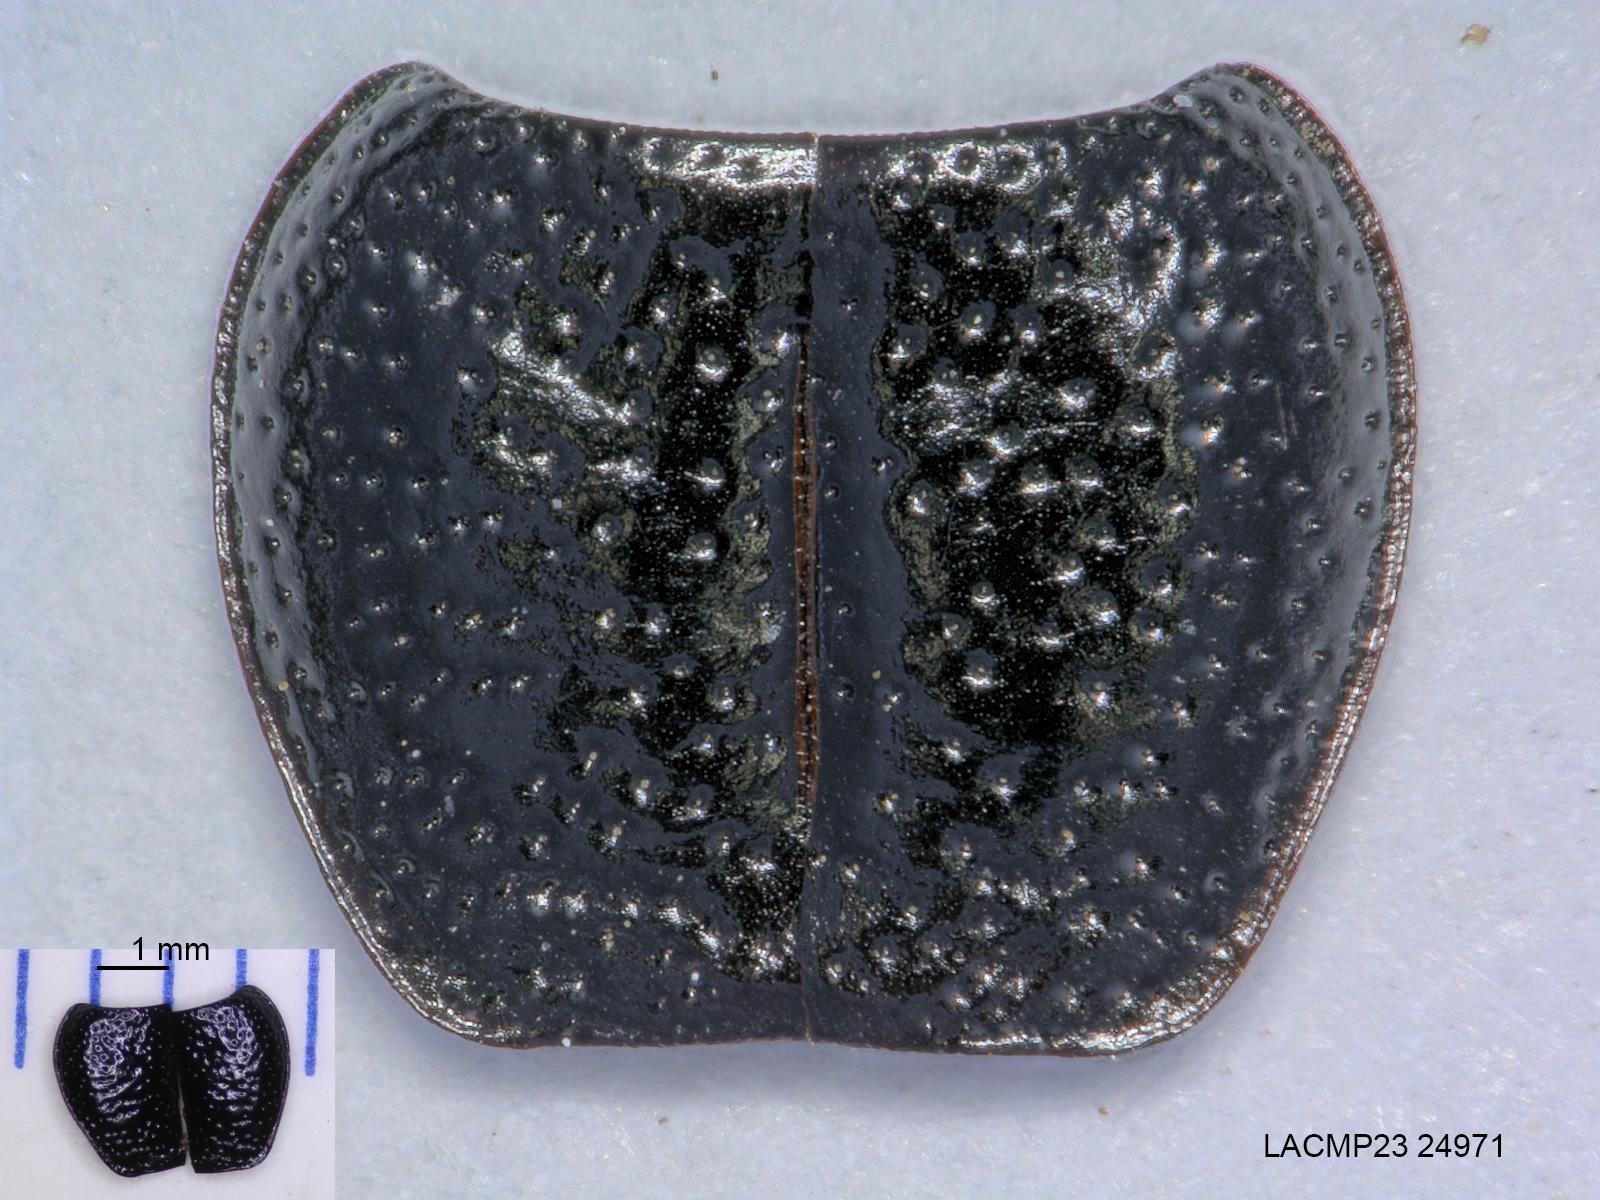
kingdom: Animalia
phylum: Arthropoda
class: Insecta
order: Coleoptera
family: Carabidae
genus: Dicheirus
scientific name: Dicheirus dilatatus
